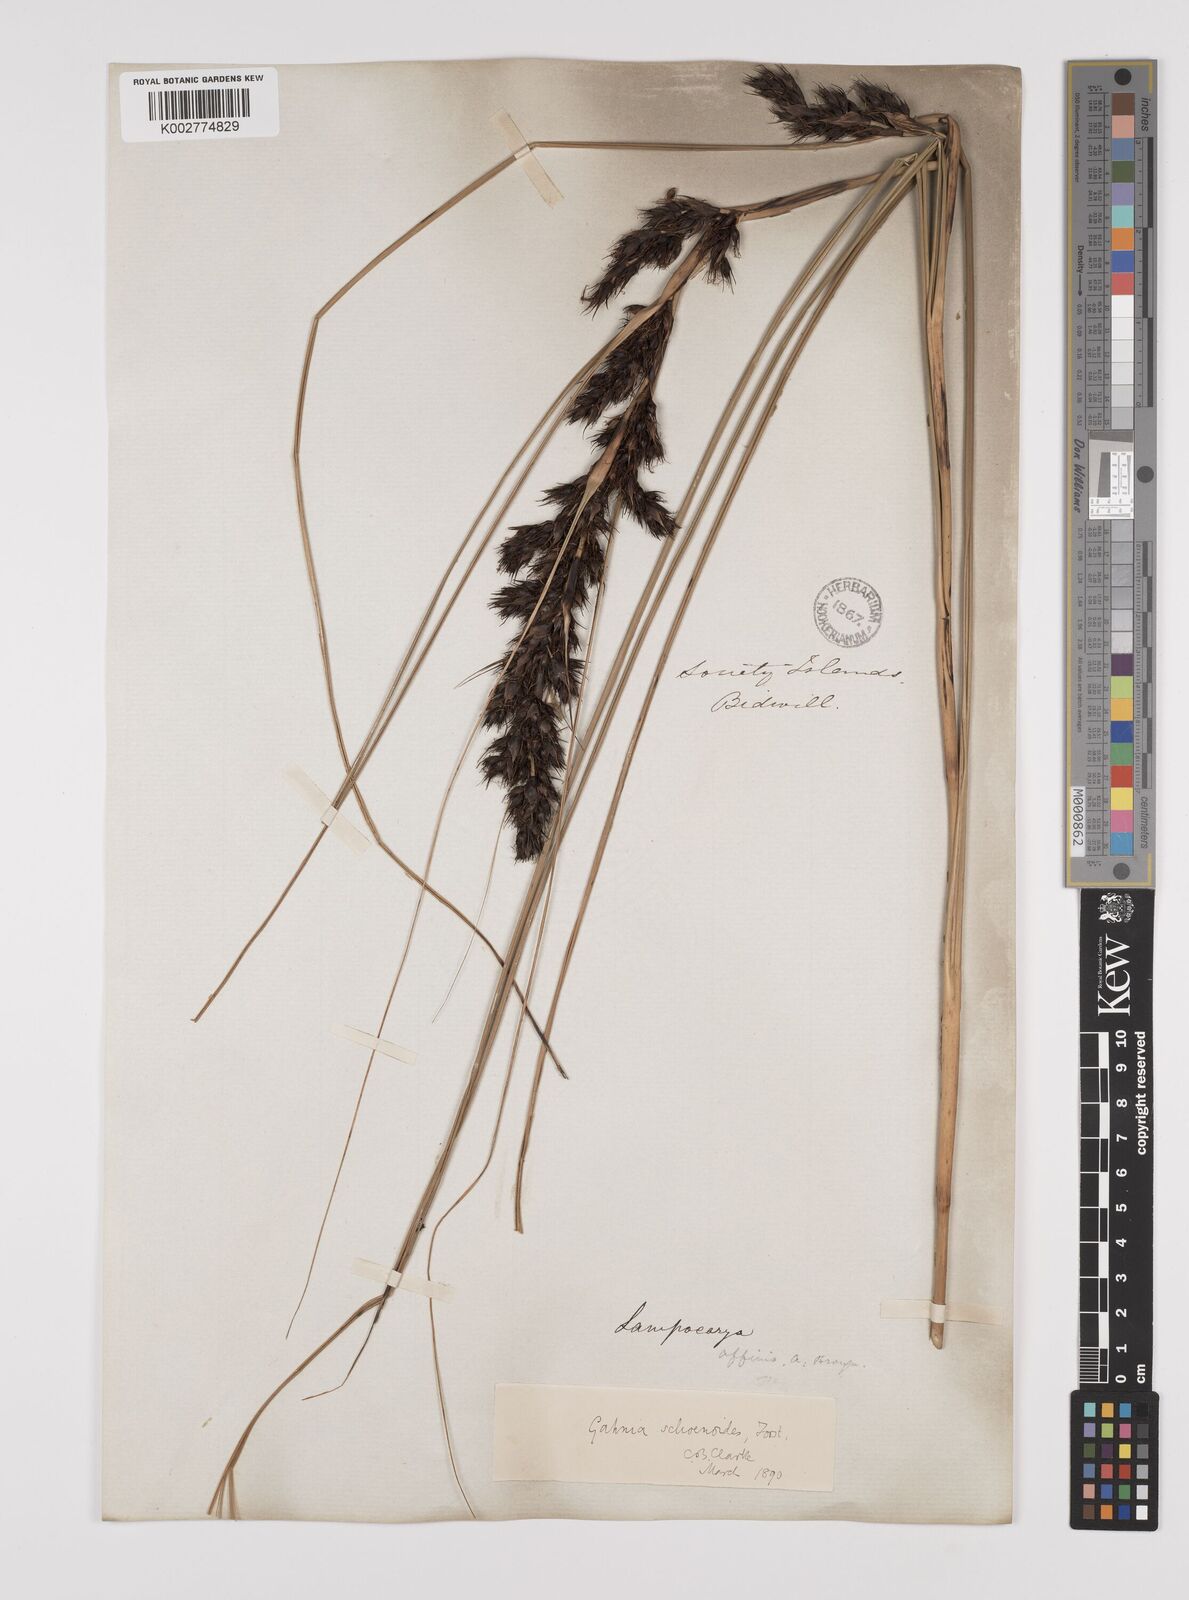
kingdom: Plantae
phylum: Tracheophyta
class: Liliopsida
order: Poales
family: Cyperaceae
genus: Gahnia
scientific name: Gahnia schoenoides
